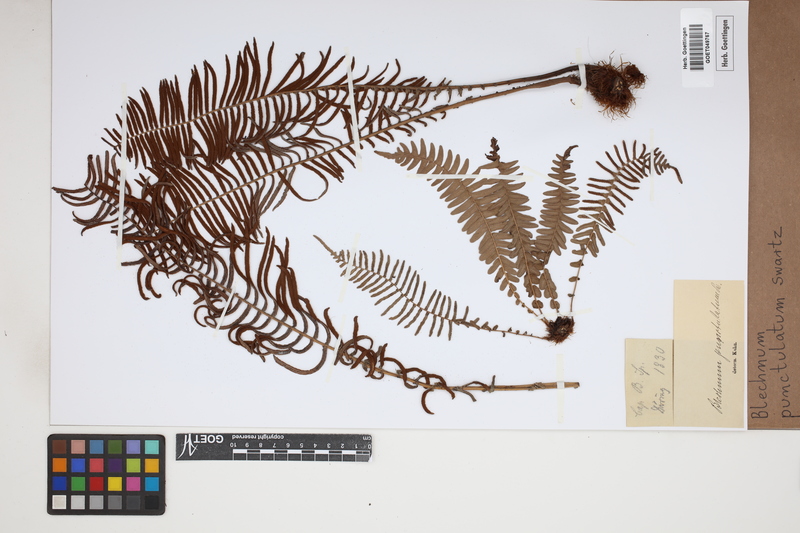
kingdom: Plantae
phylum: Tracheophyta
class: Polypodiopsida
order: Polypodiales
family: Blechnaceae
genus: Blechnum
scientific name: Blechnum punctulatum
